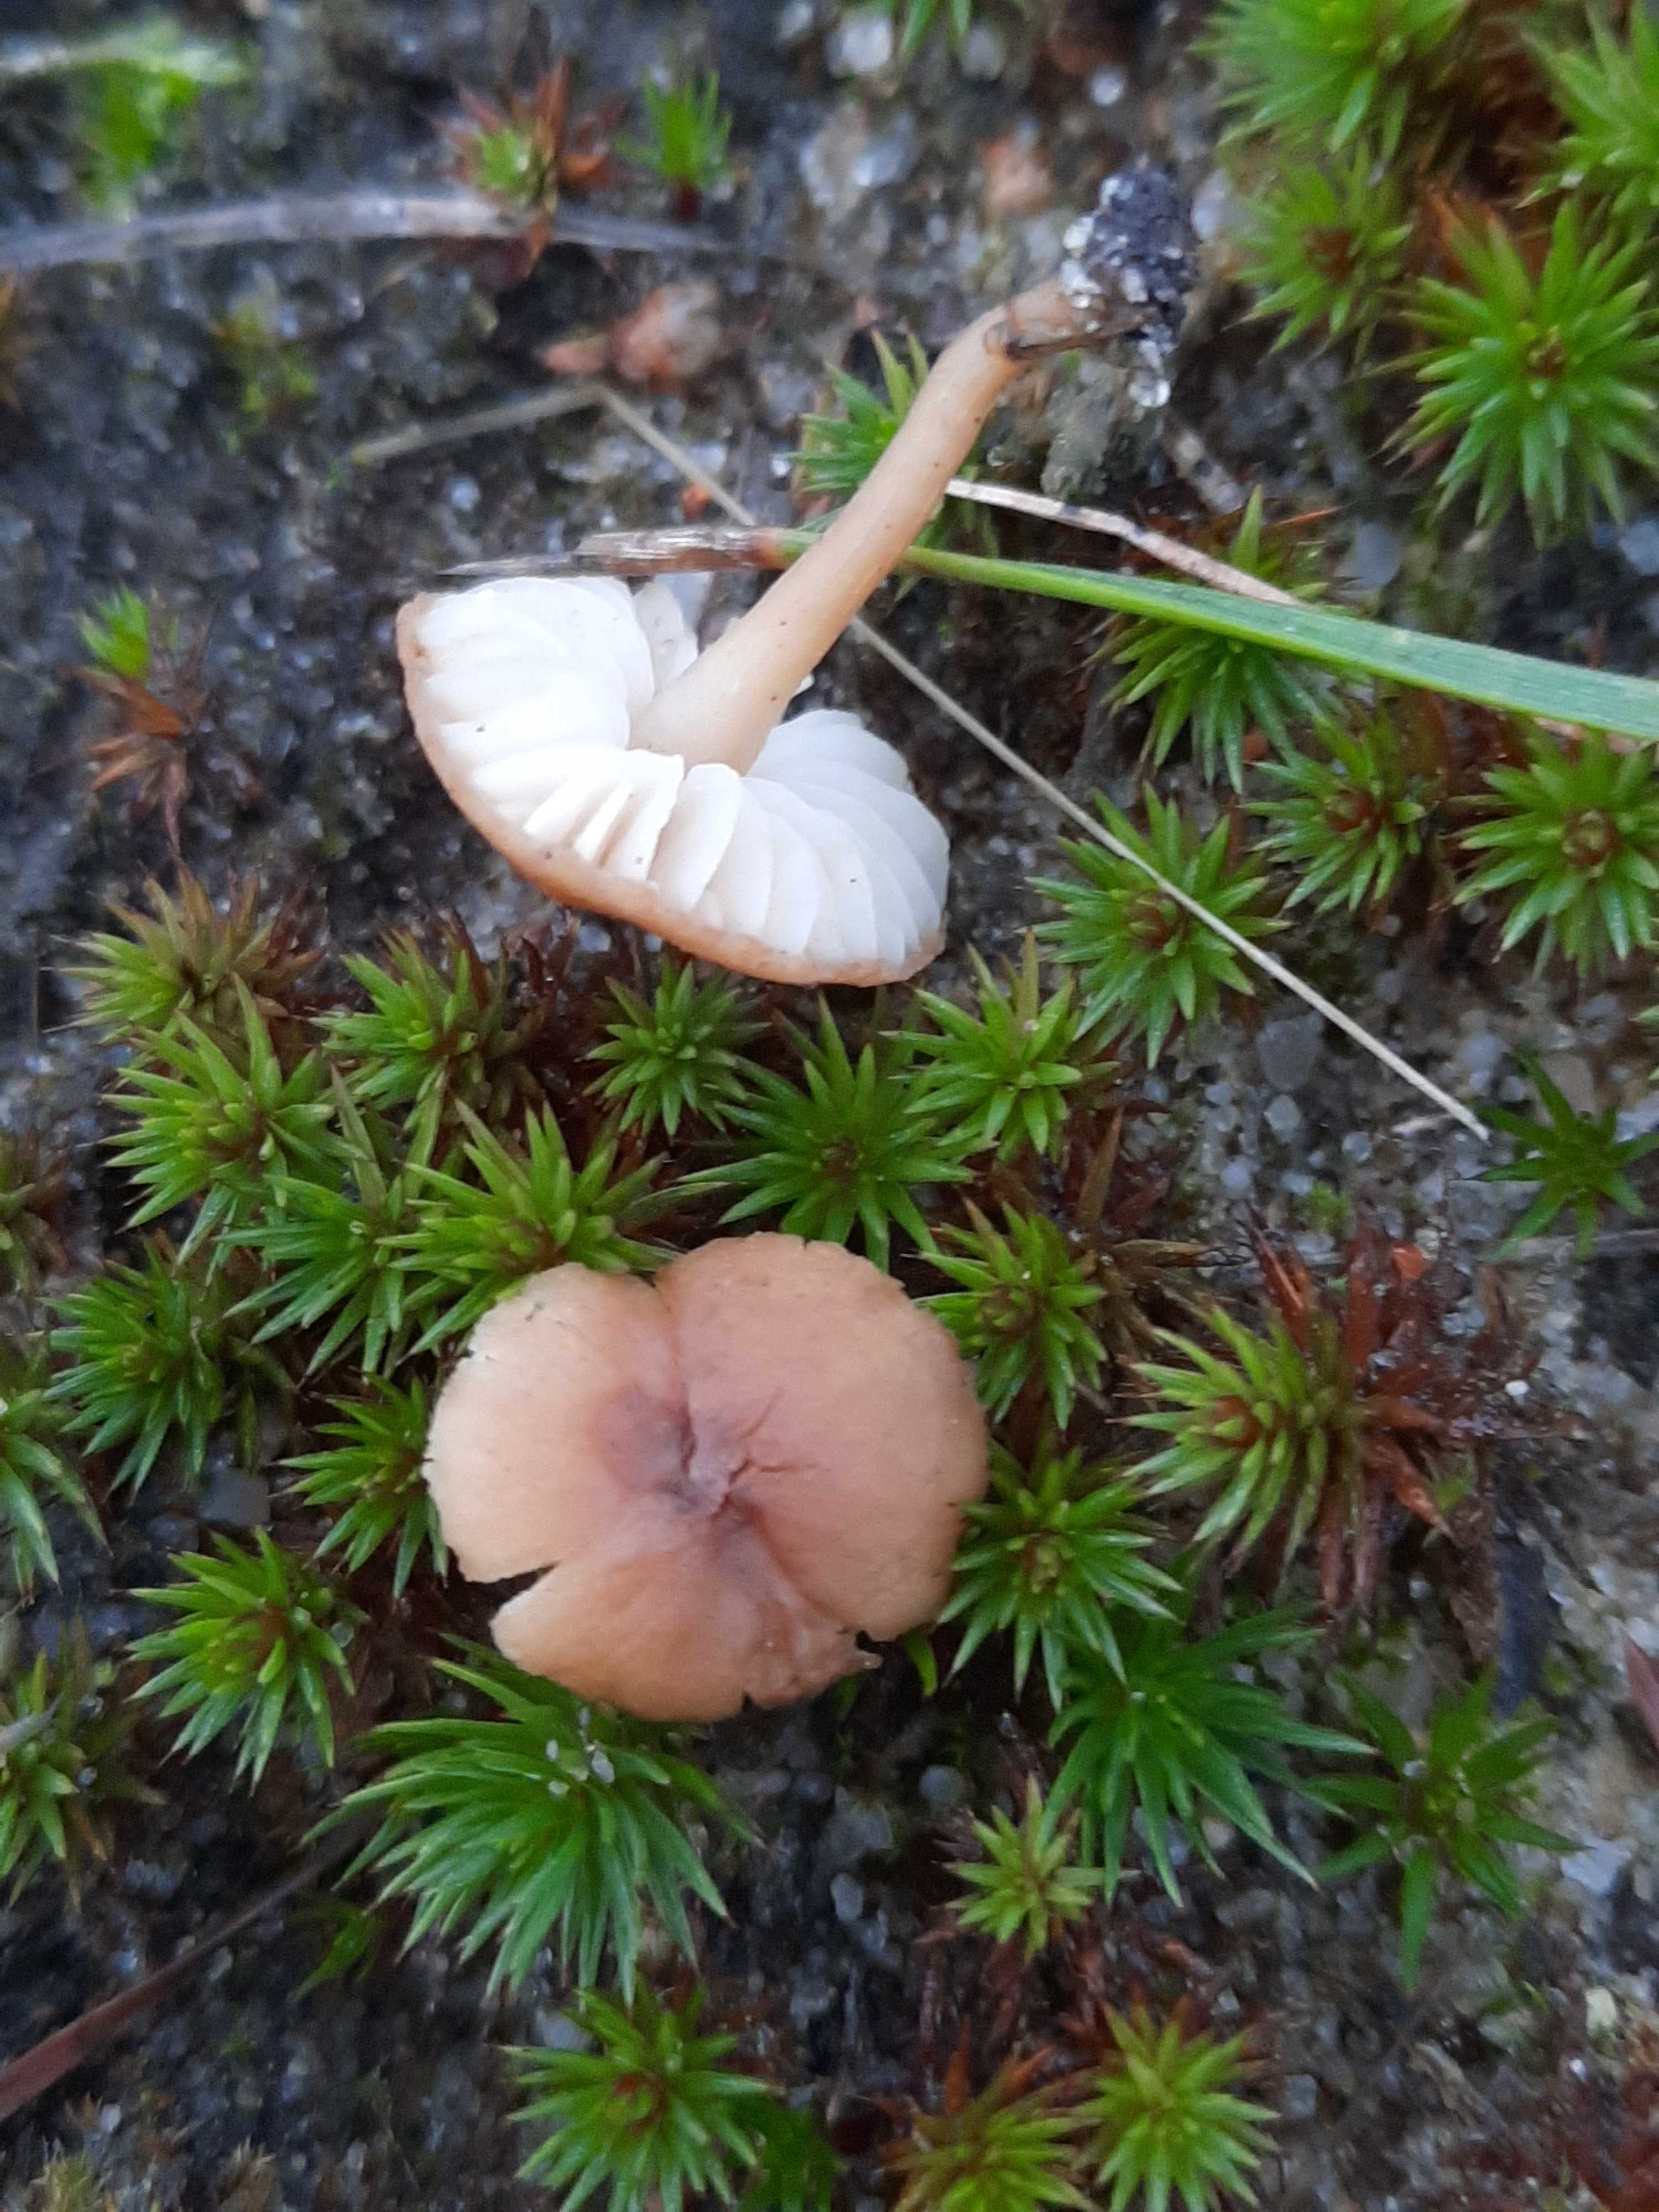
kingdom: Fungi
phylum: Basidiomycota
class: Agaricomycetes
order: Agaricales
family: Callistosporiaceae
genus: Pseudolaccaria
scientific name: Pseudolaccaria pachyphylla
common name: hvælvet tykblad
